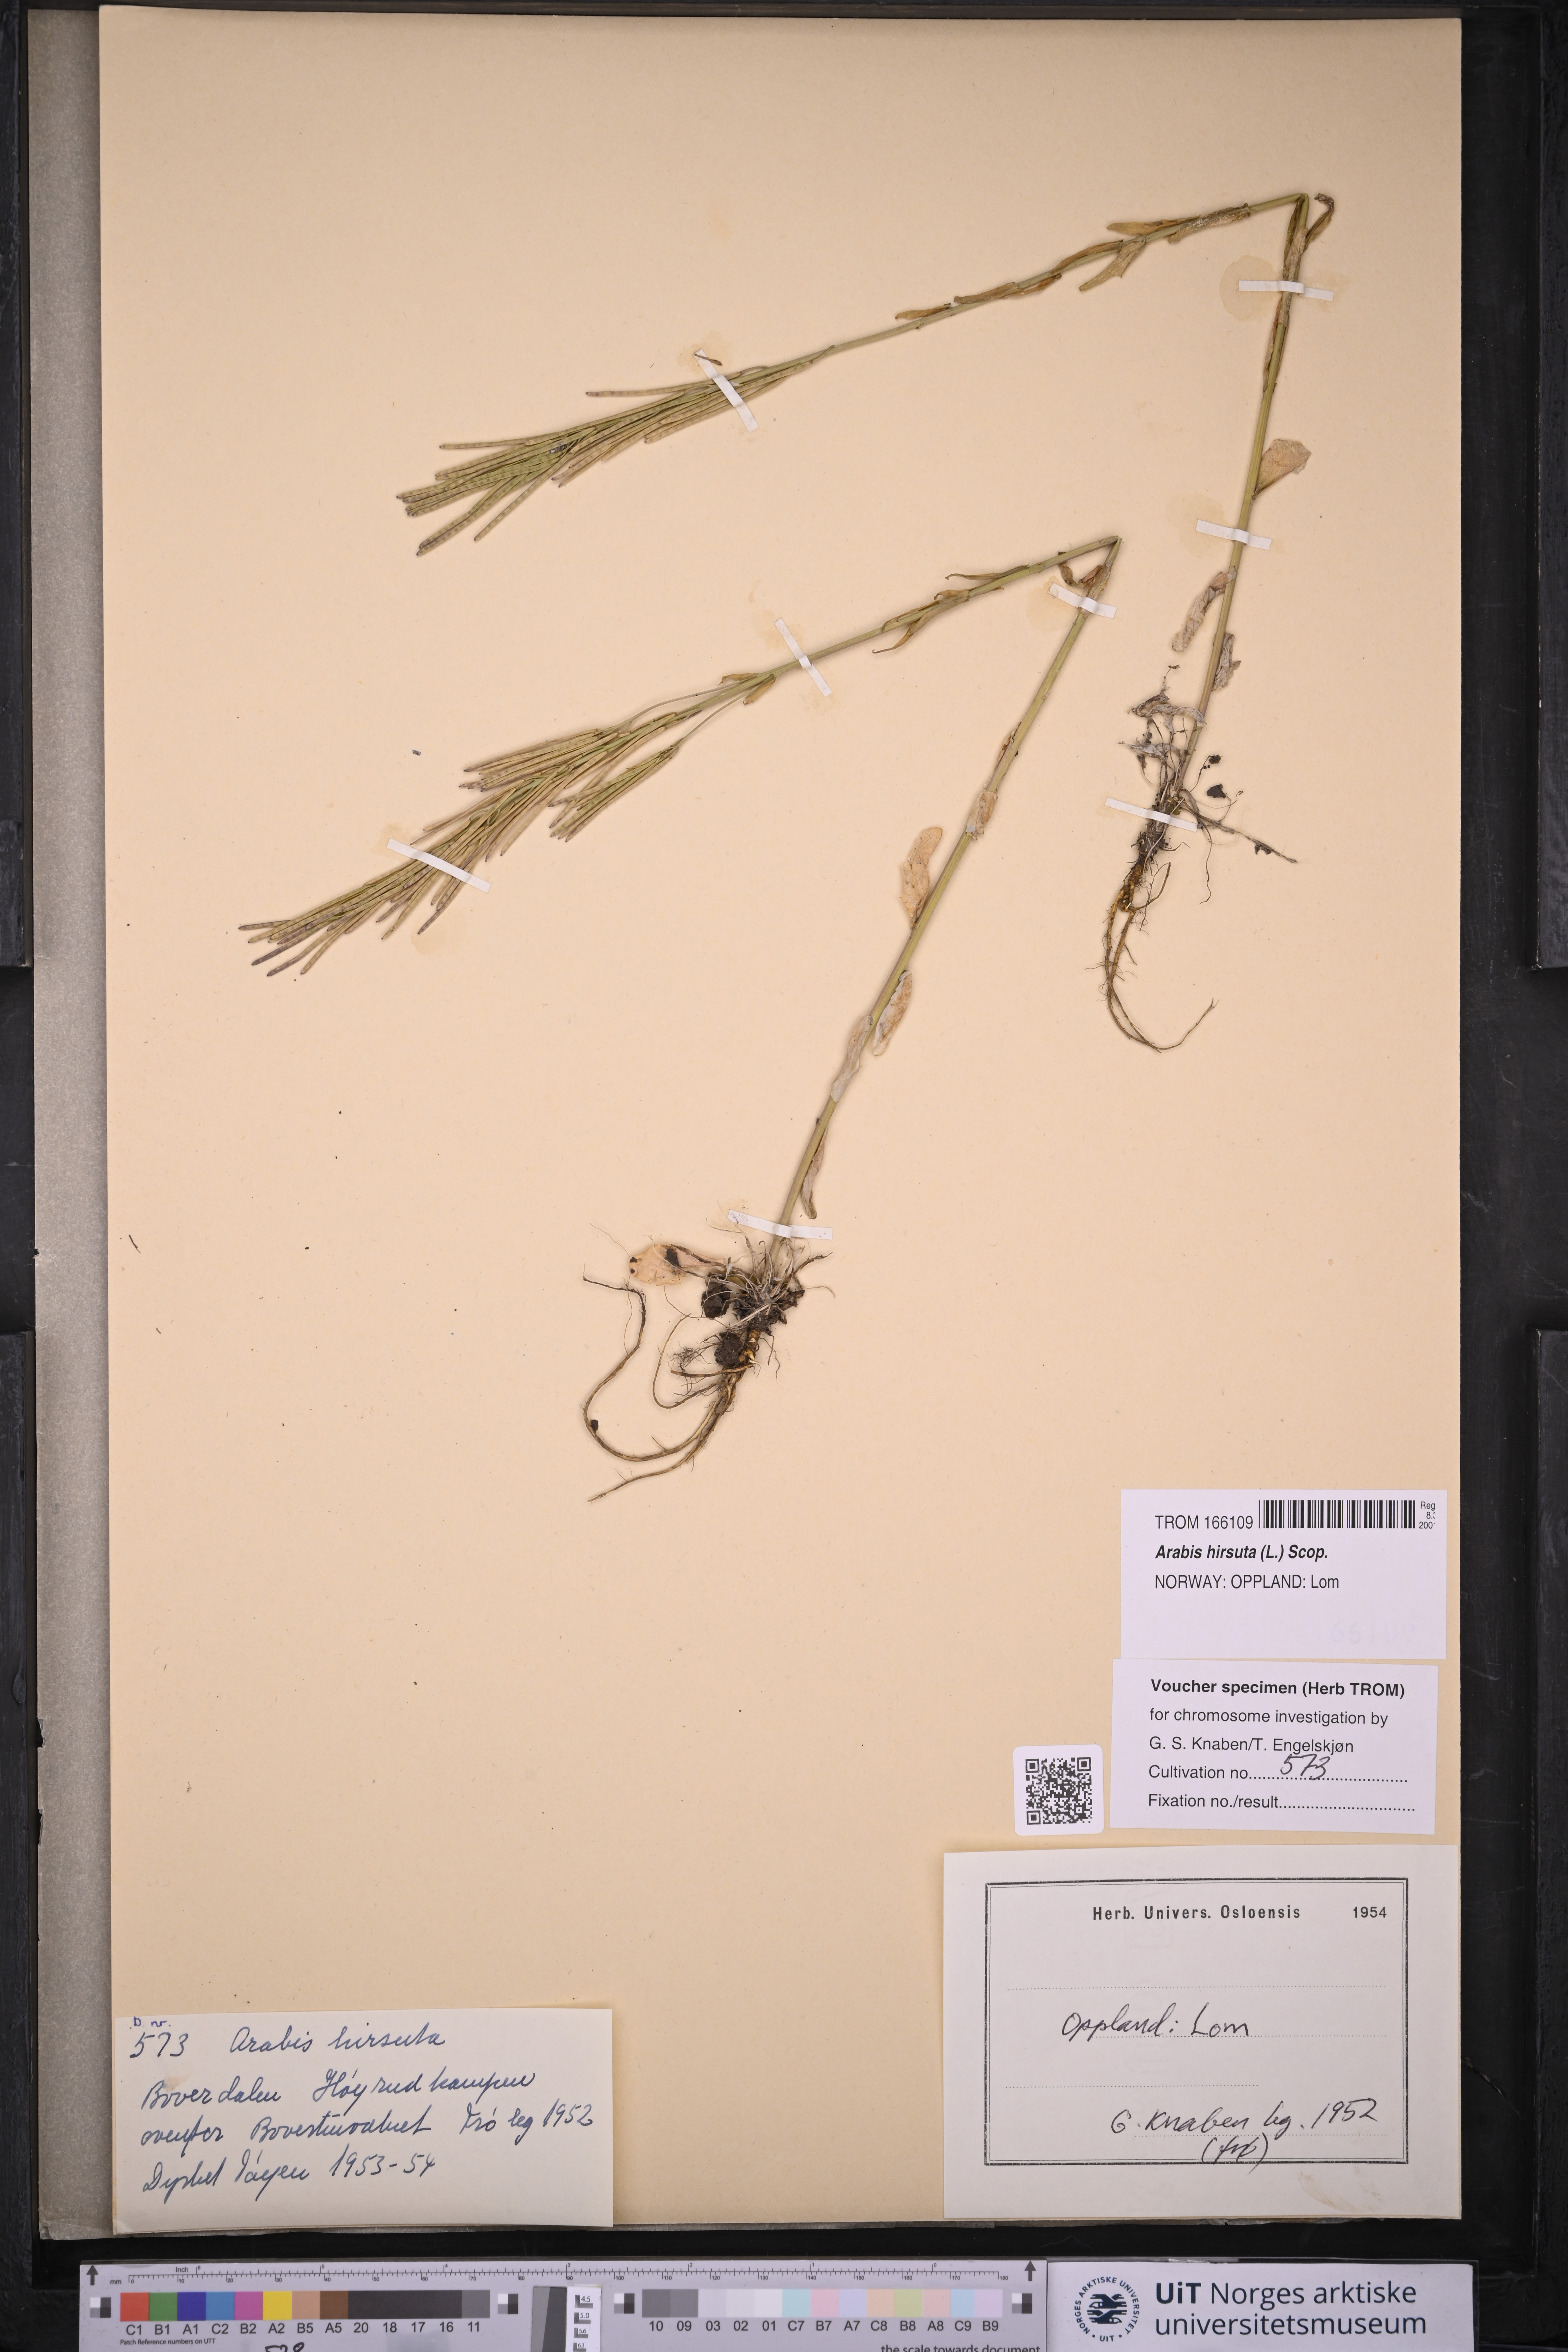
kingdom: Plantae
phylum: Tracheophyta
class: Magnoliopsida
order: Brassicales
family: Brassicaceae
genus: Arabis
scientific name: Arabis hirsuta
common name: Hairy rock-cress
